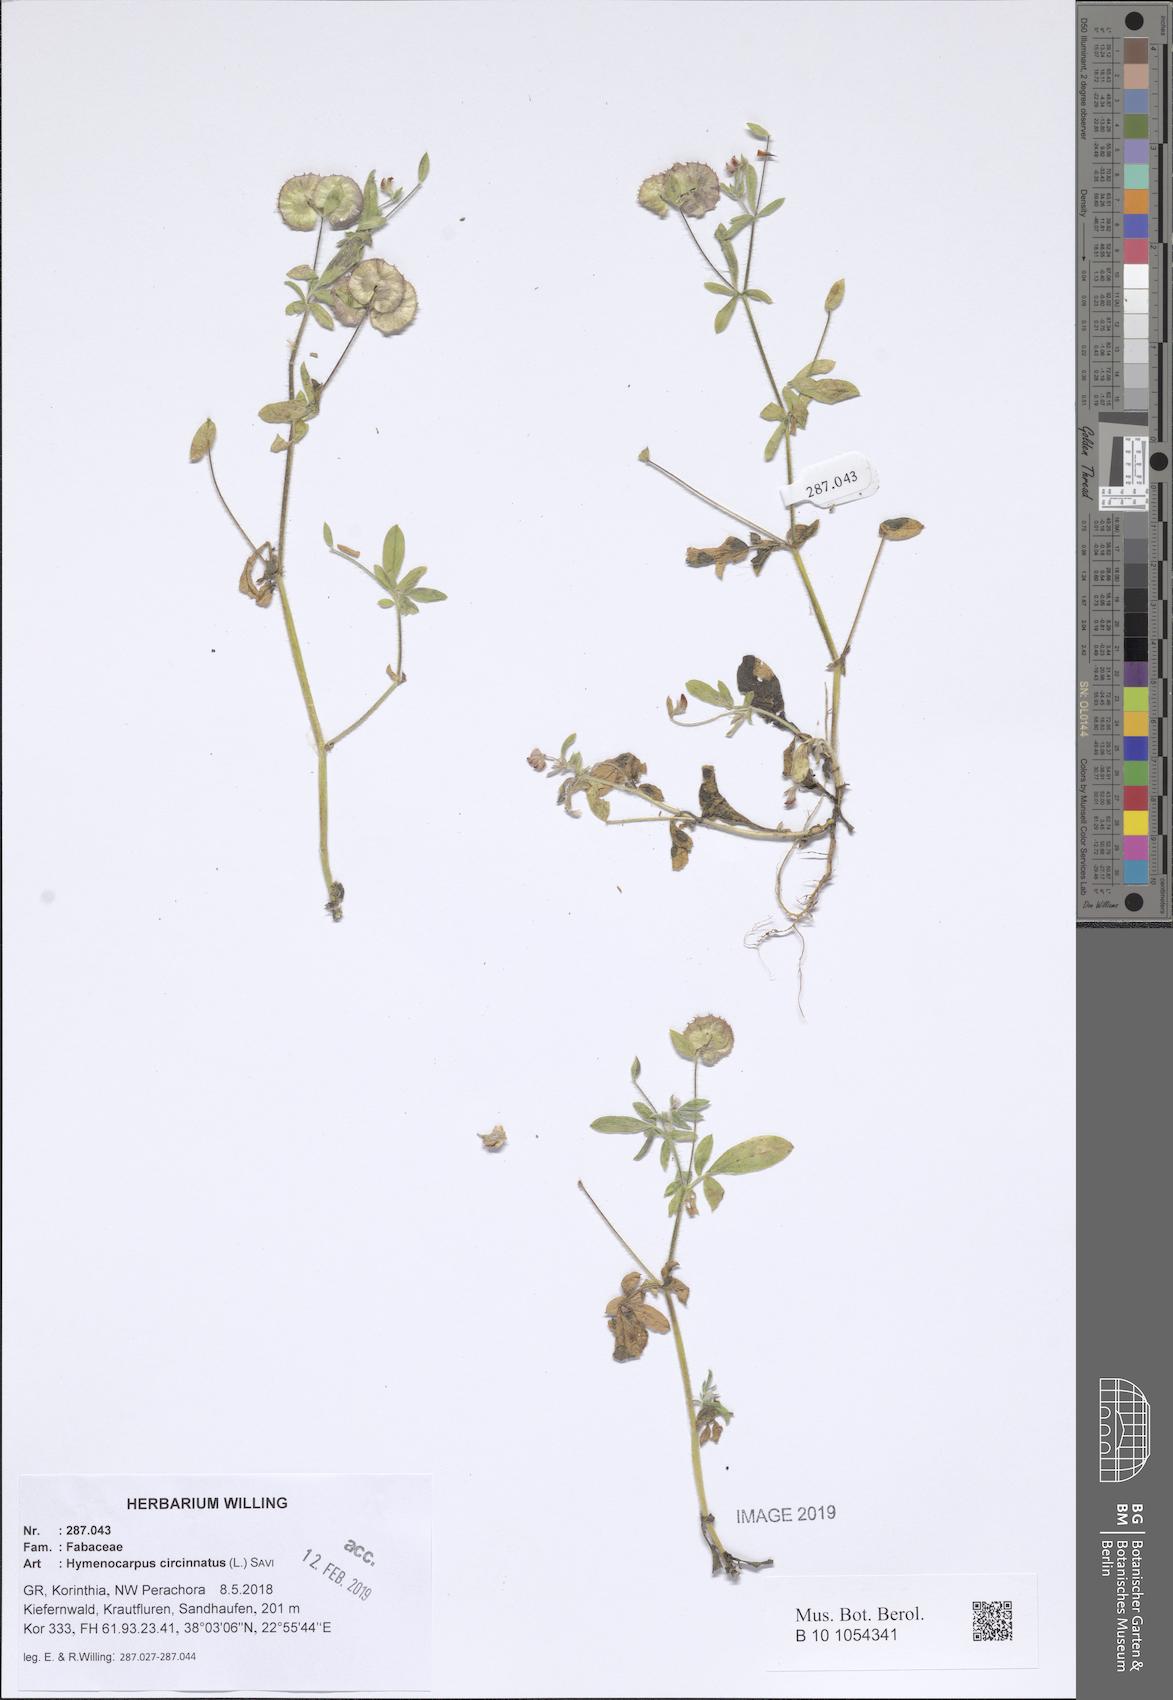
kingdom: Plantae
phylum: Tracheophyta
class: Magnoliopsida
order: Fabales
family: Fabaceae
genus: Anthyllis
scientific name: Anthyllis circinnata
